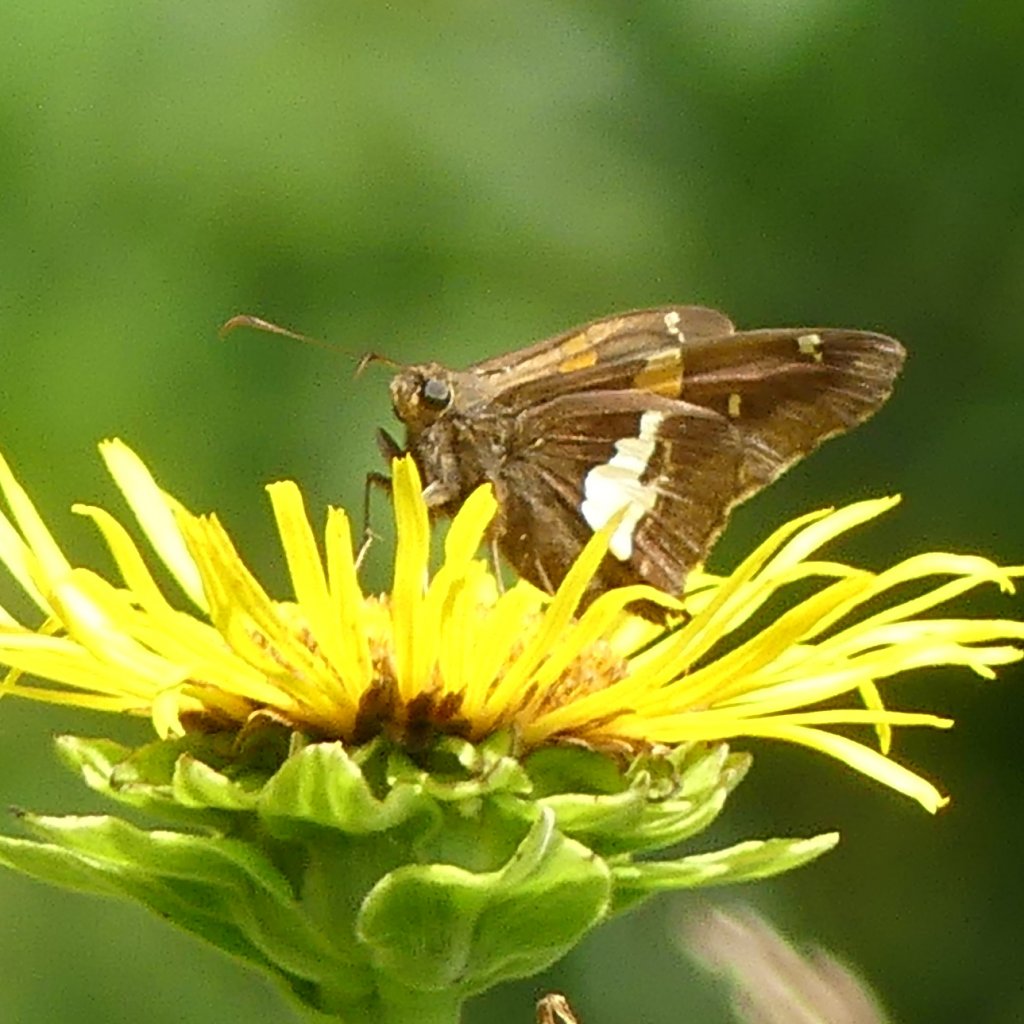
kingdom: Animalia
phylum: Arthropoda
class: Insecta
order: Lepidoptera
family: Hesperiidae
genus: Epargyreus
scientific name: Epargyreus clarus
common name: Silver-spotted Skipper
